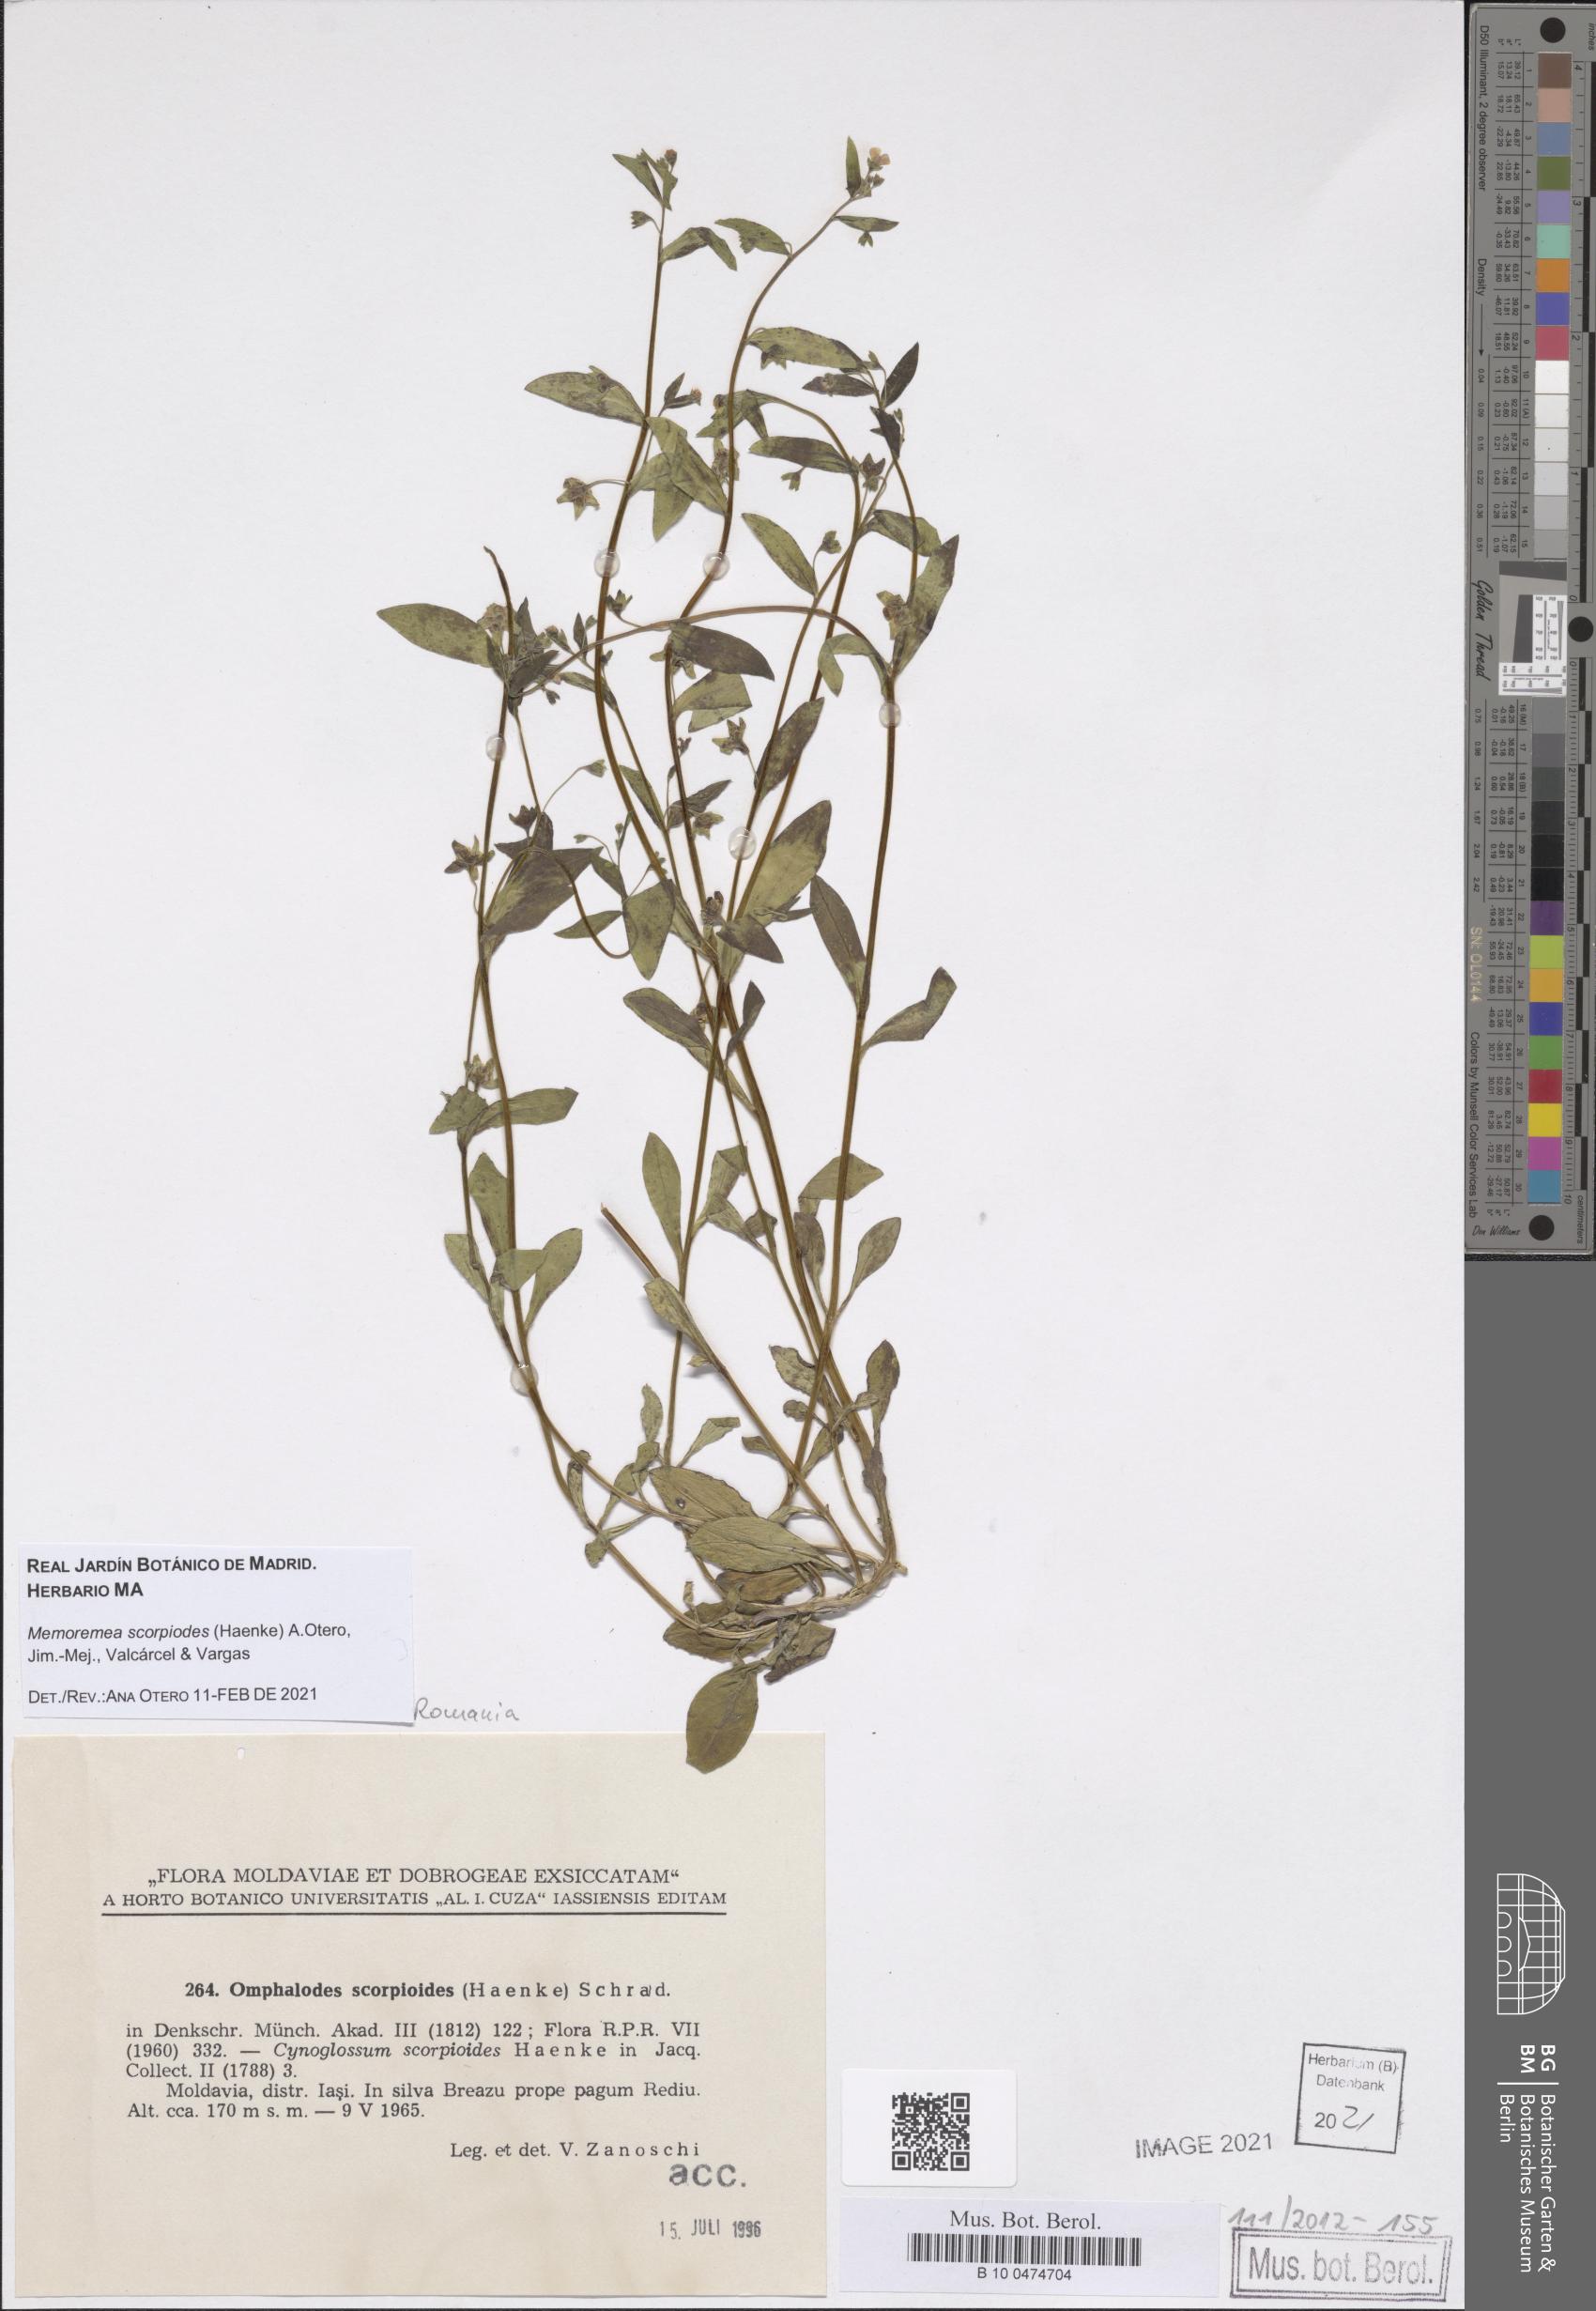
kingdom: Plantae
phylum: Tracheophyta
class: Magnoliopsida
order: Boraginales
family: Boraginaceae
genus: Memoremea
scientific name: Memoremea scorpioides
